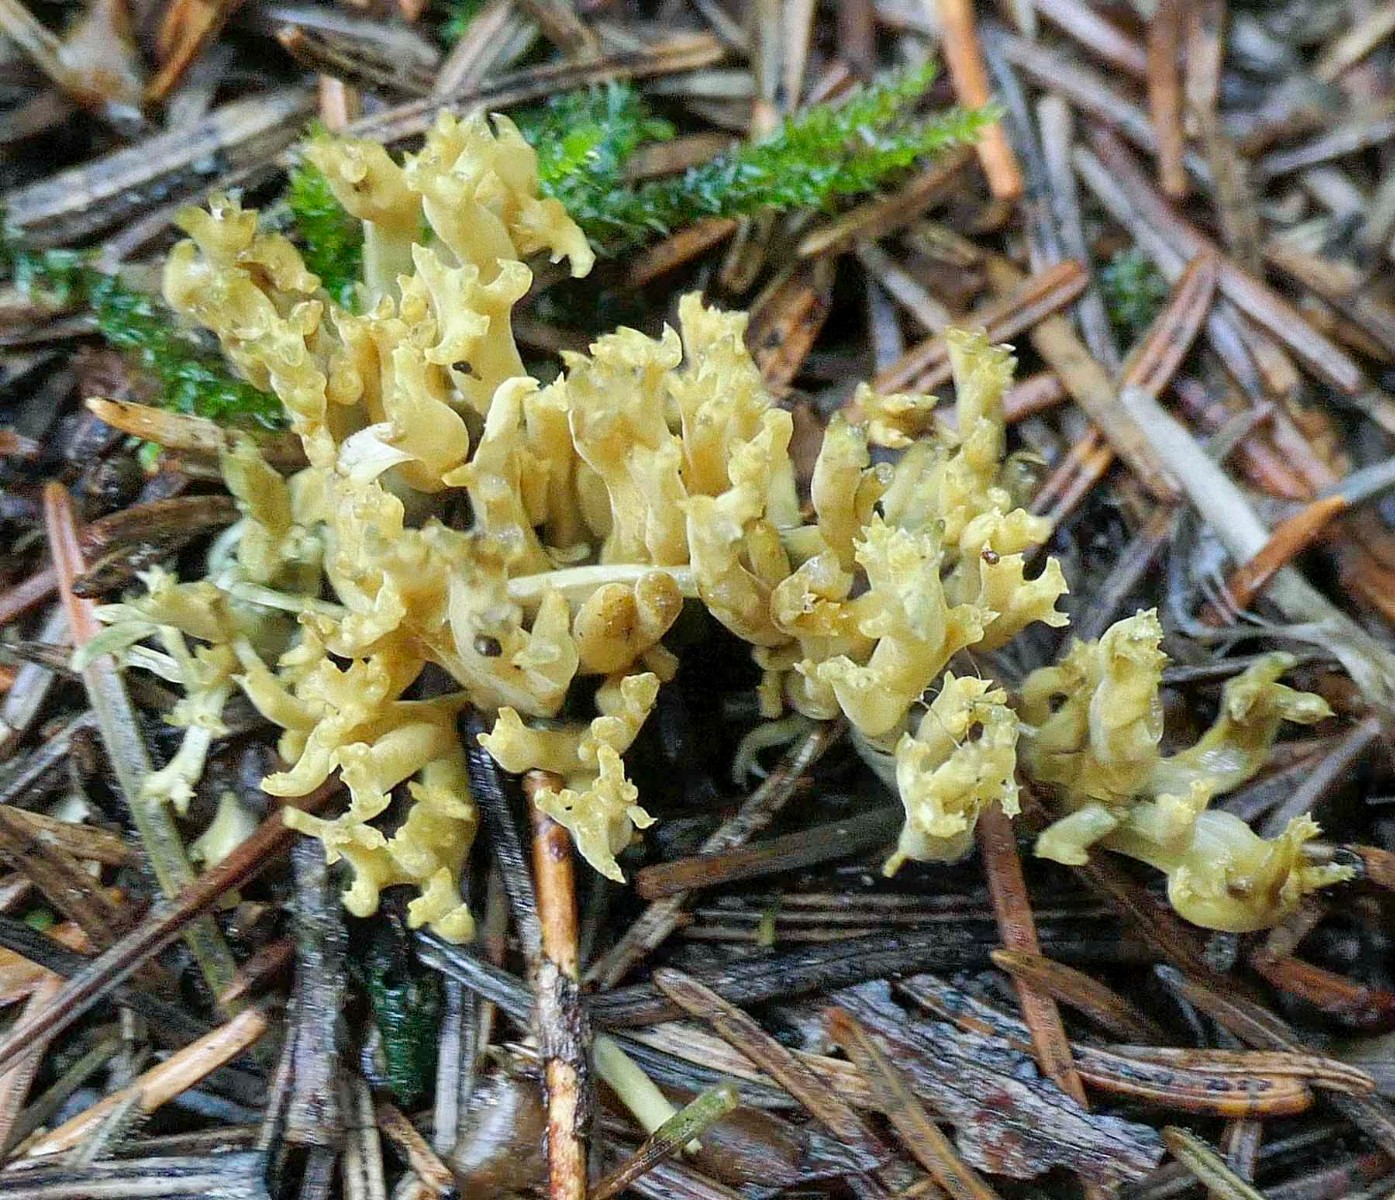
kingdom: Fungi
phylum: Basidiomycota
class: Agaricomycetes
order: Gomphales
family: Gomphaceae
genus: Phaeoclavulina
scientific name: Phaeoclavulina abietina
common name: gulgrøn koralsvamp
